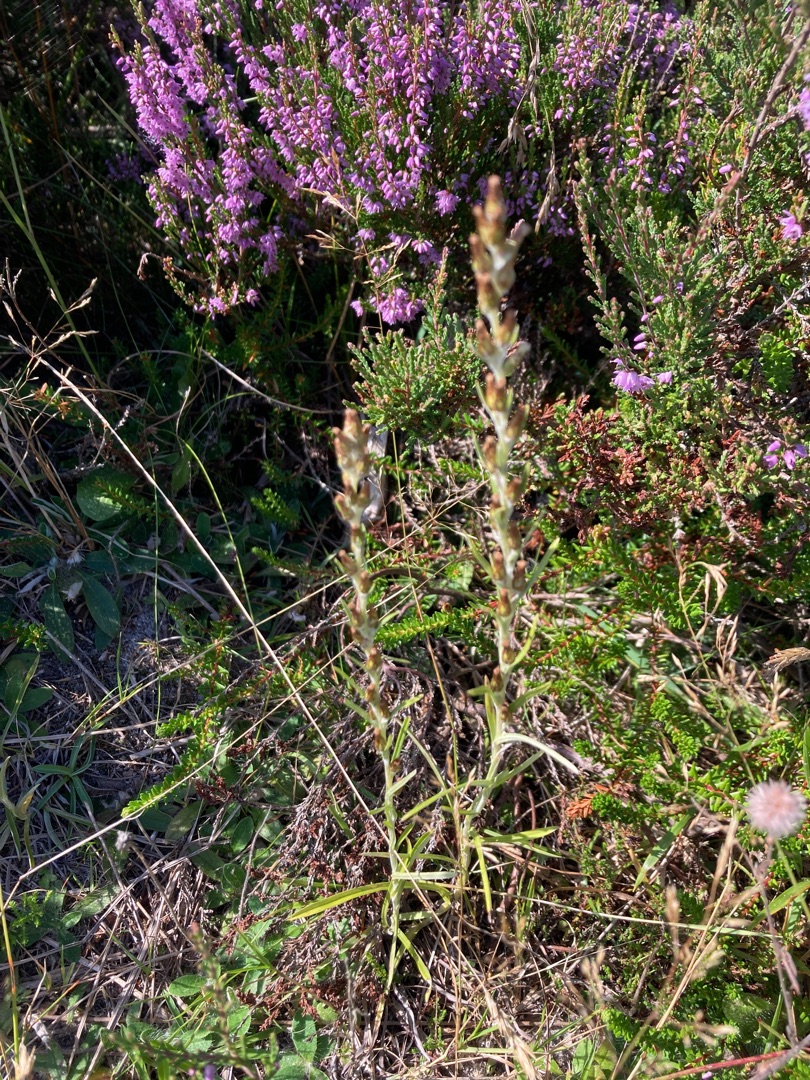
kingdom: Plantae
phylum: Tracheophyta
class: Magnoliopsida
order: Asterales
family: Asteraceae
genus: Omalotheca
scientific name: Omalotheca sylvatica
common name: Rank evighedsblomst
